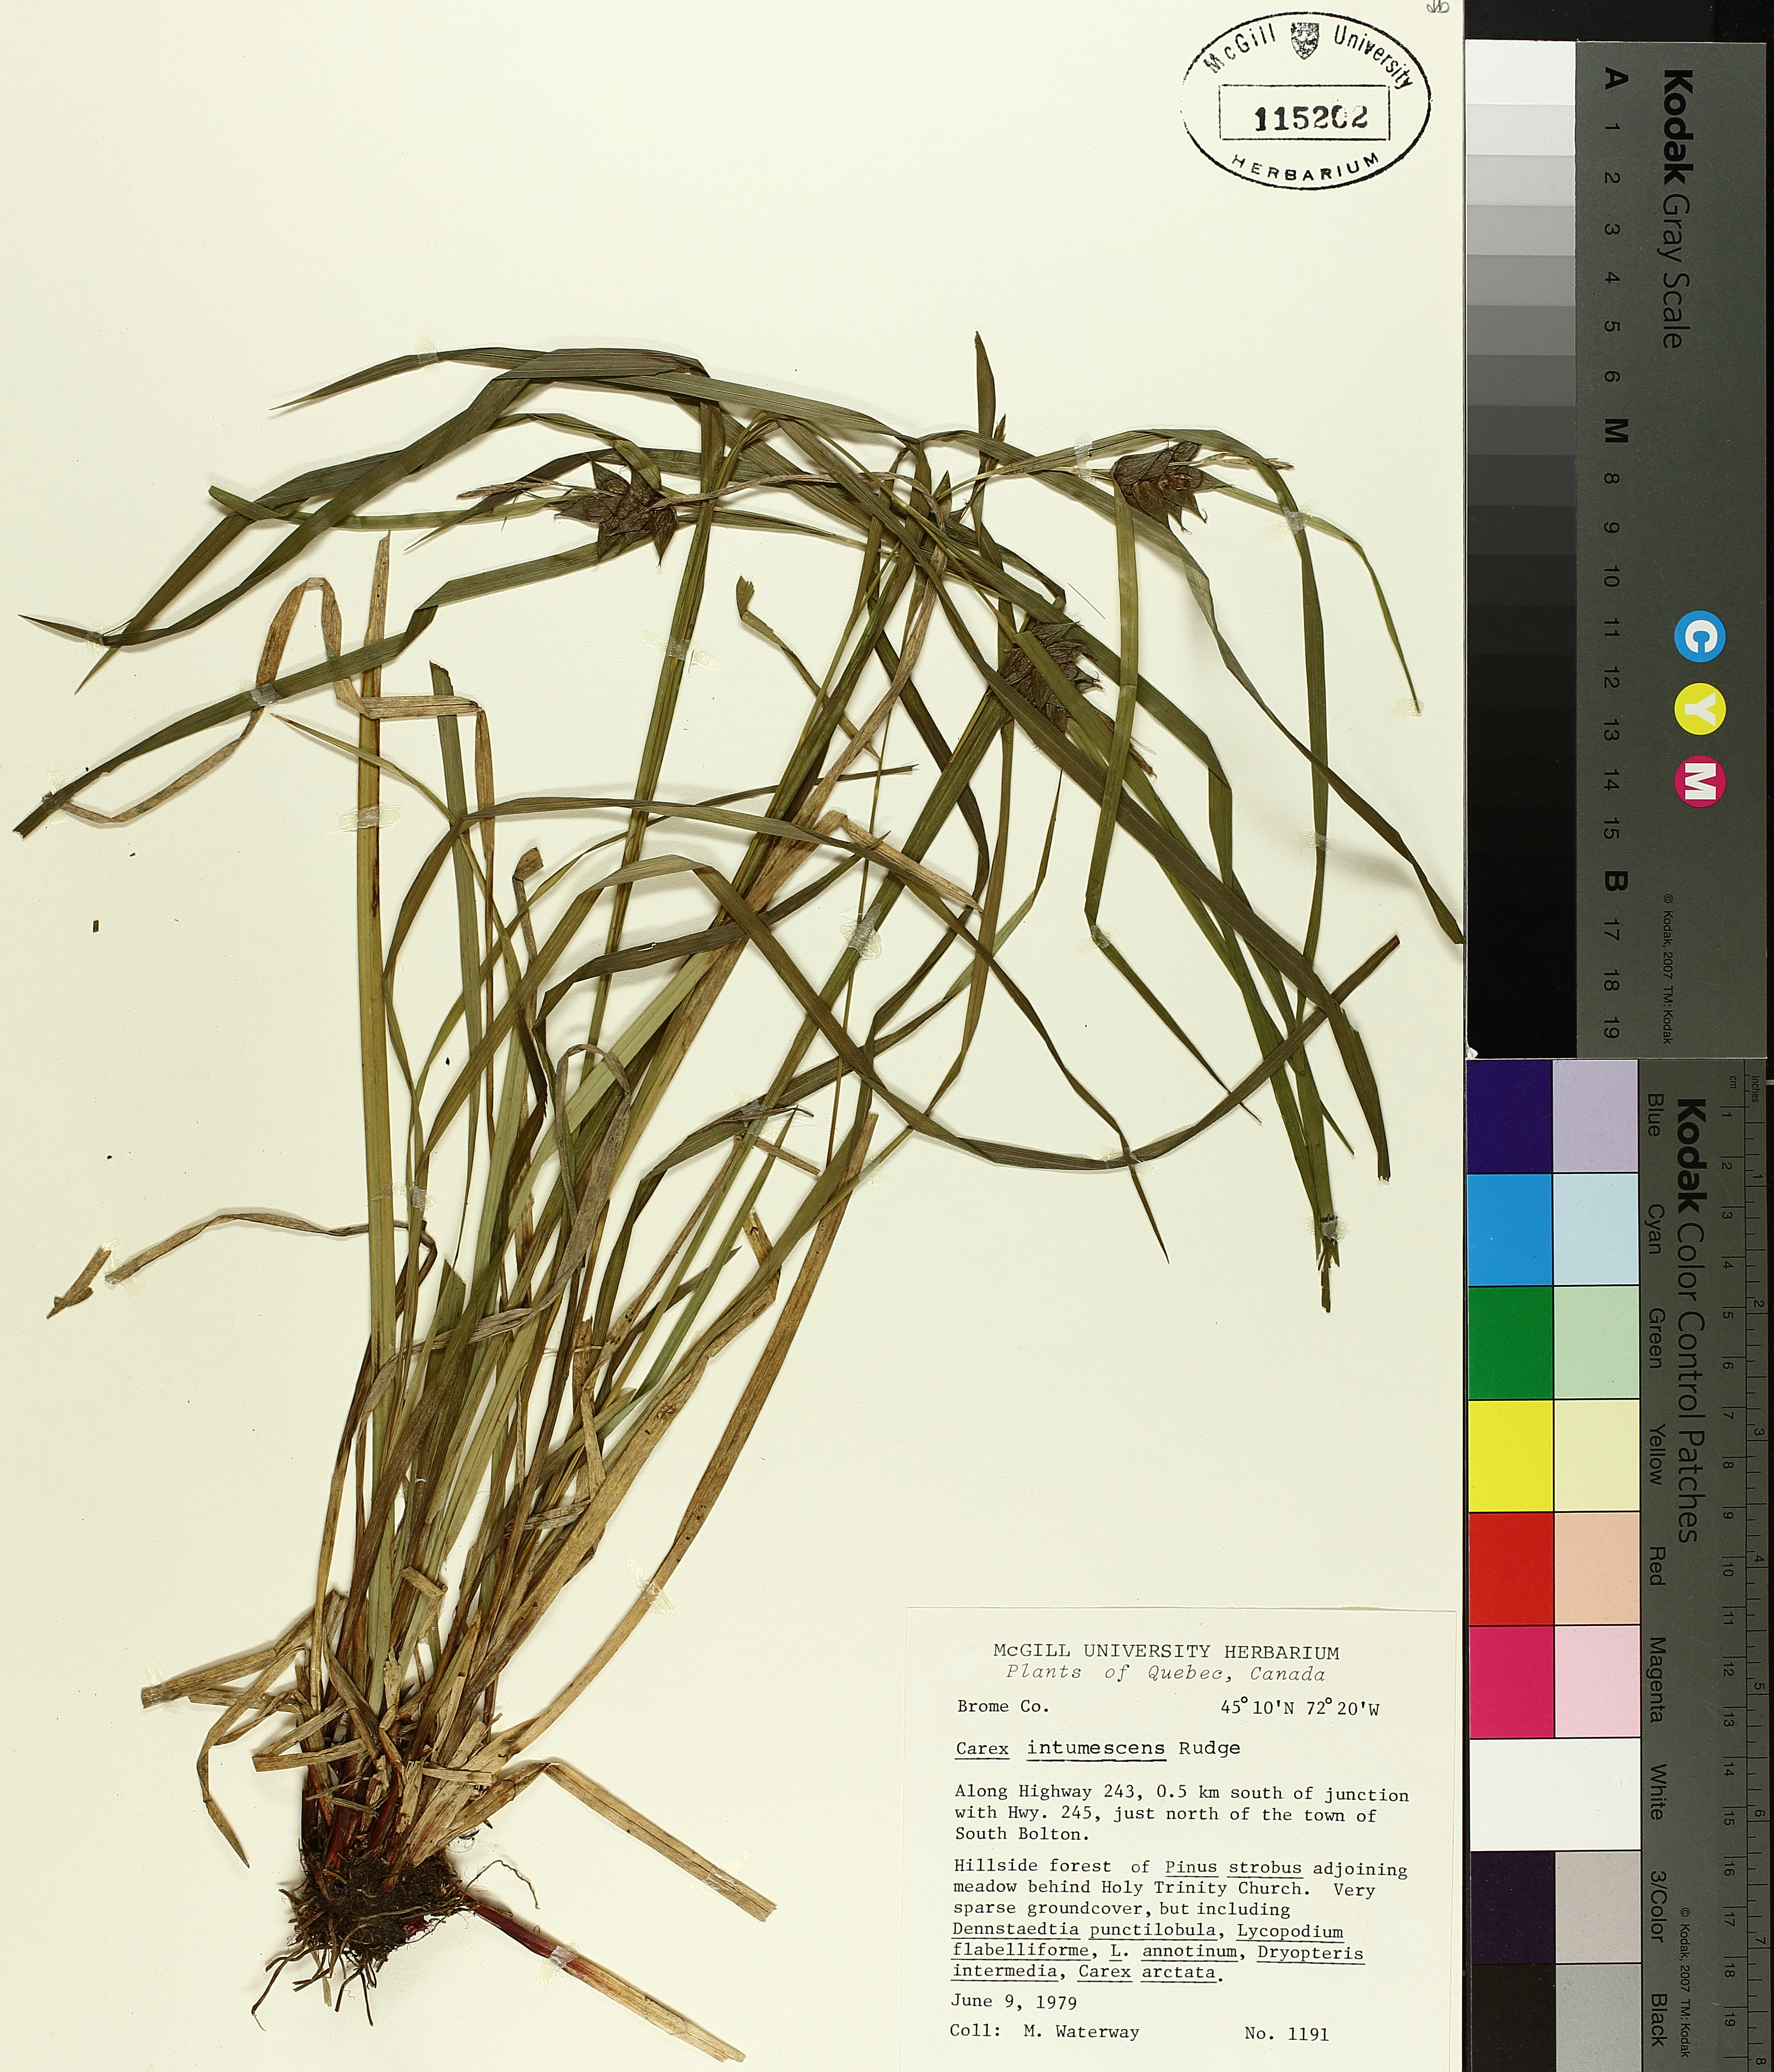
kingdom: Plantae
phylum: Tracheophyta
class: Liliopsida
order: Poales
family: Cyperaceae
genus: Carex
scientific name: Carex intumescens
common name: Greater bladder sedge
